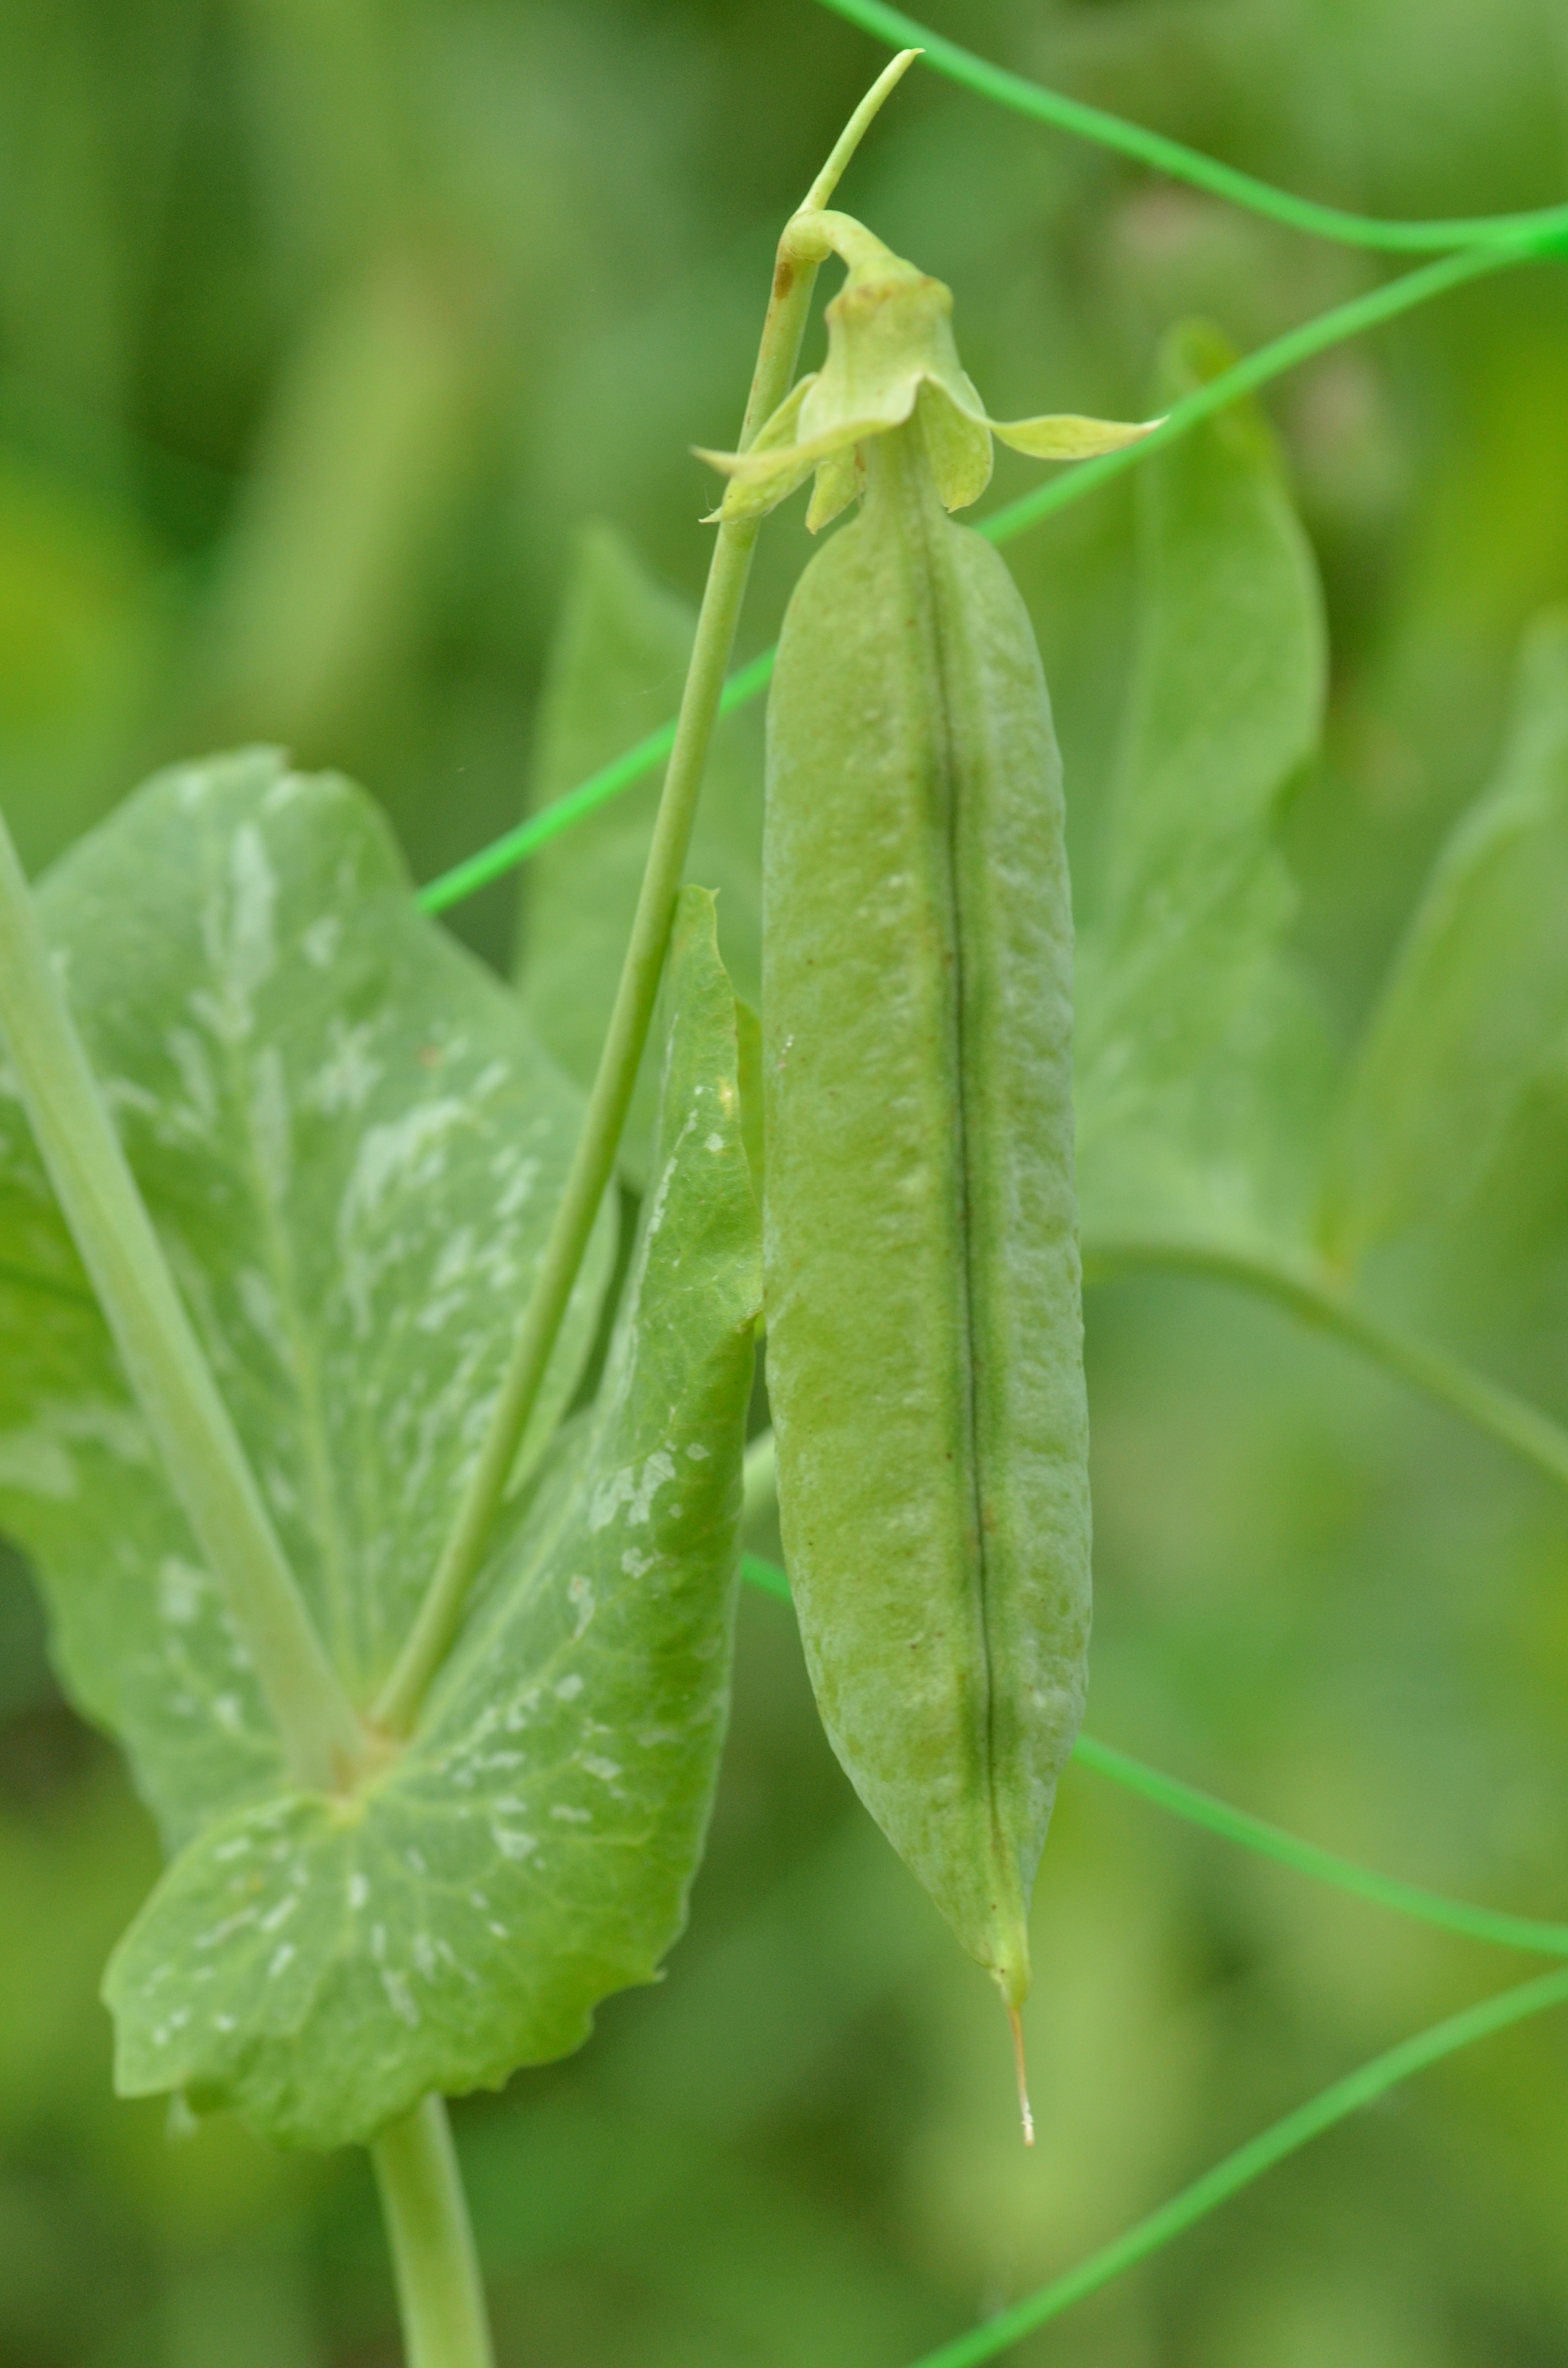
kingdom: Plantae
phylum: Tracheophyta
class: Magnoliopsida
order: Fabales
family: Fabaceae
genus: Lathyrus
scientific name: Lathyrus oleraceus
